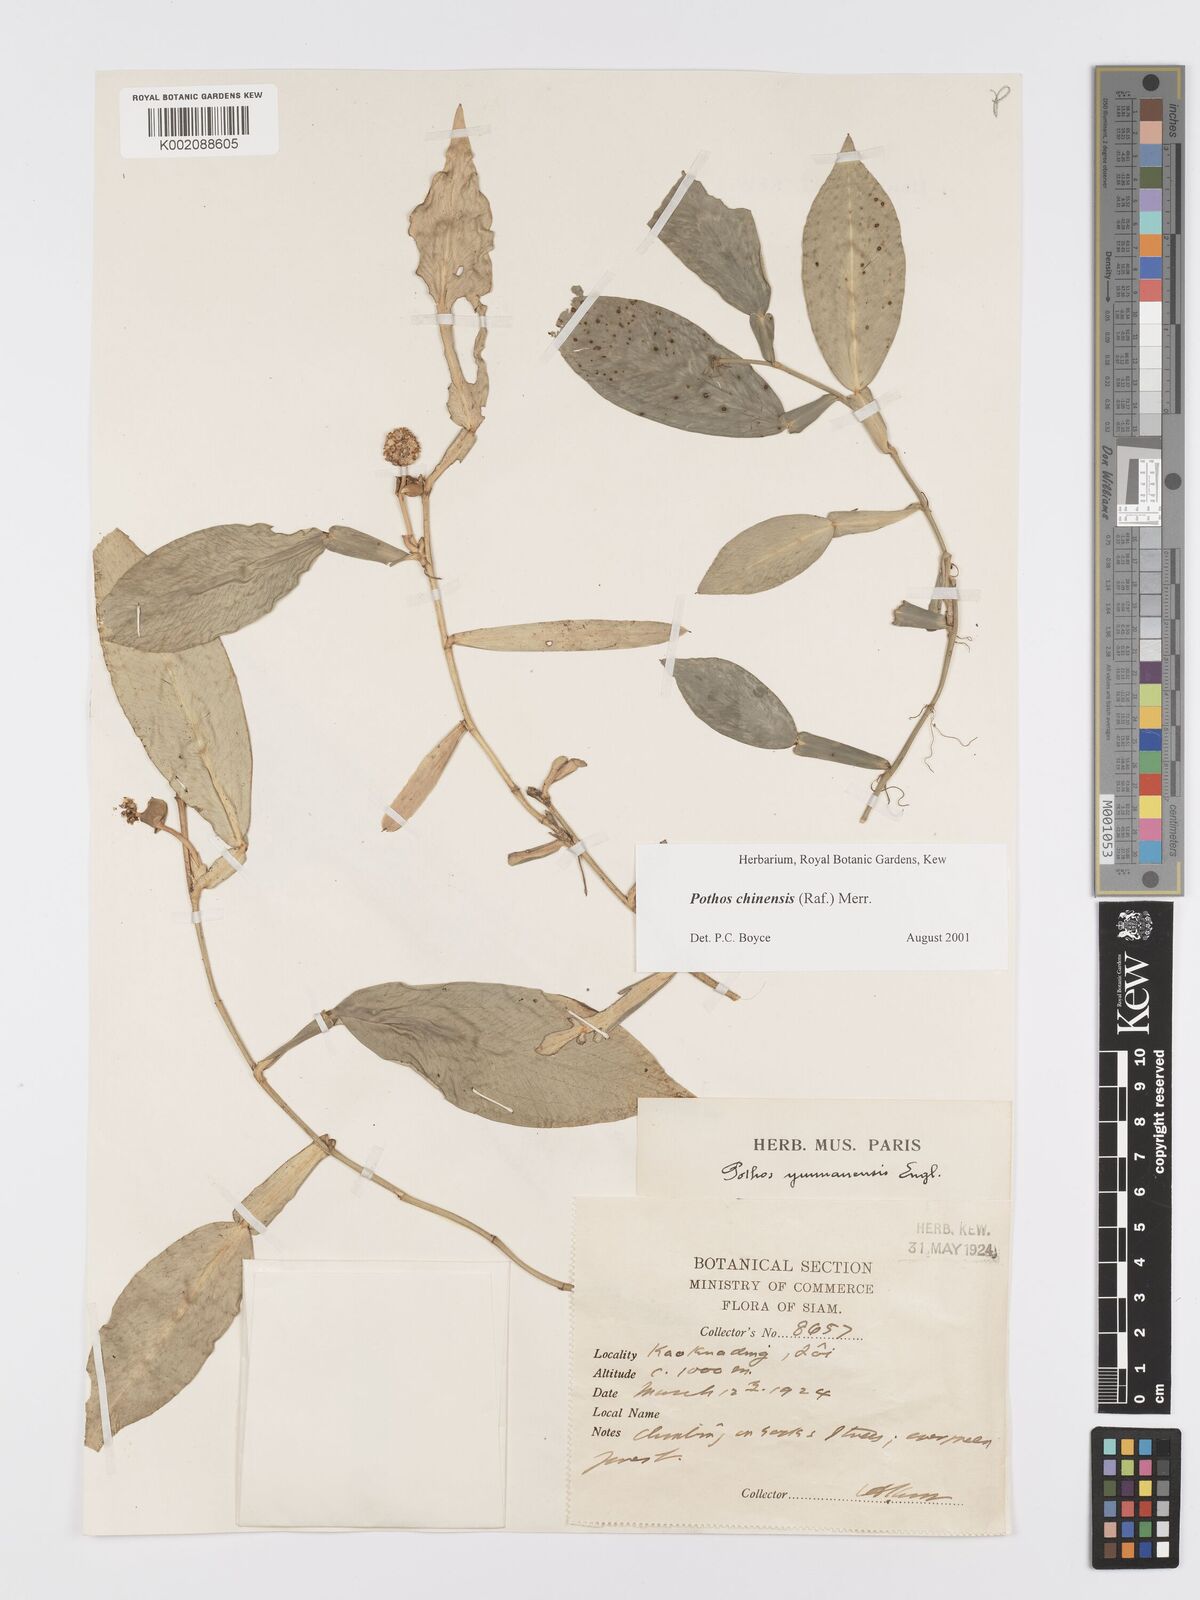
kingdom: Plantae
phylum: Tracheophyta
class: Liliopsida
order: Alismatales
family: Araceae
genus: Pothos
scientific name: Pothos chinensis
